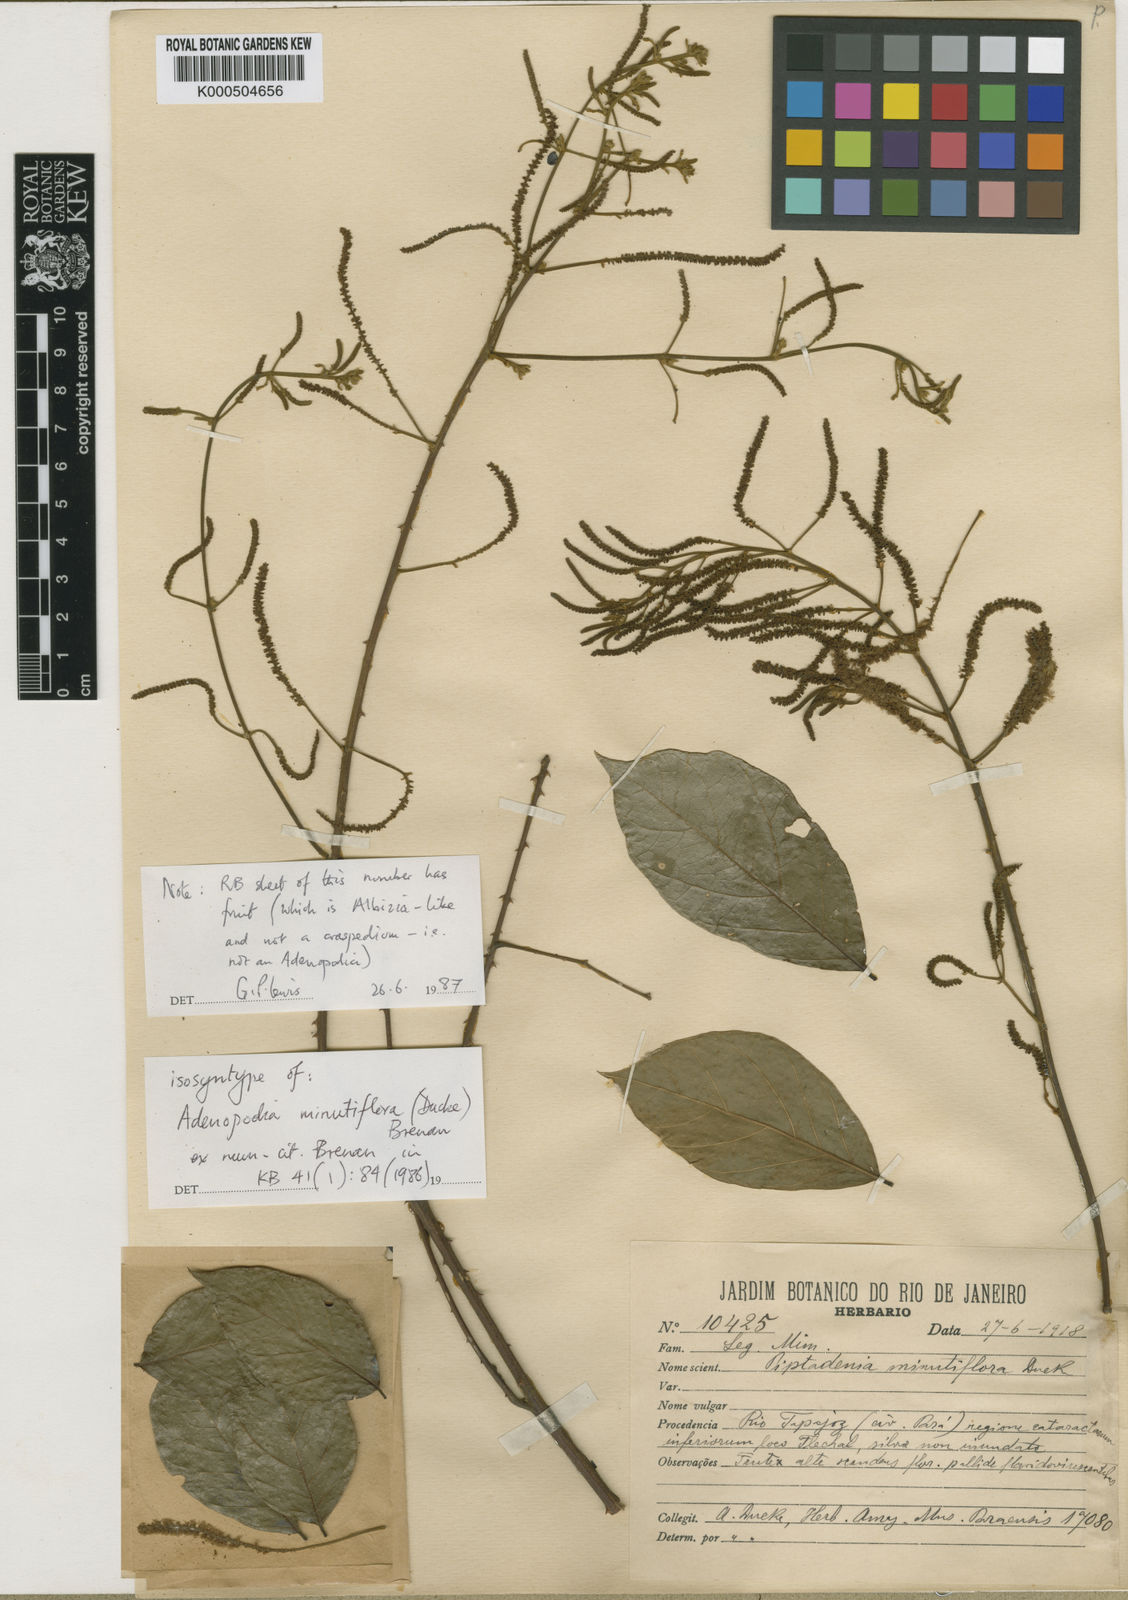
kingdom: Plantae
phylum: Tracheophyta
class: Magnoliopsida
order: Fabales
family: Fabaceae
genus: Piptadenia
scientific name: Piptadenia minutiflora
